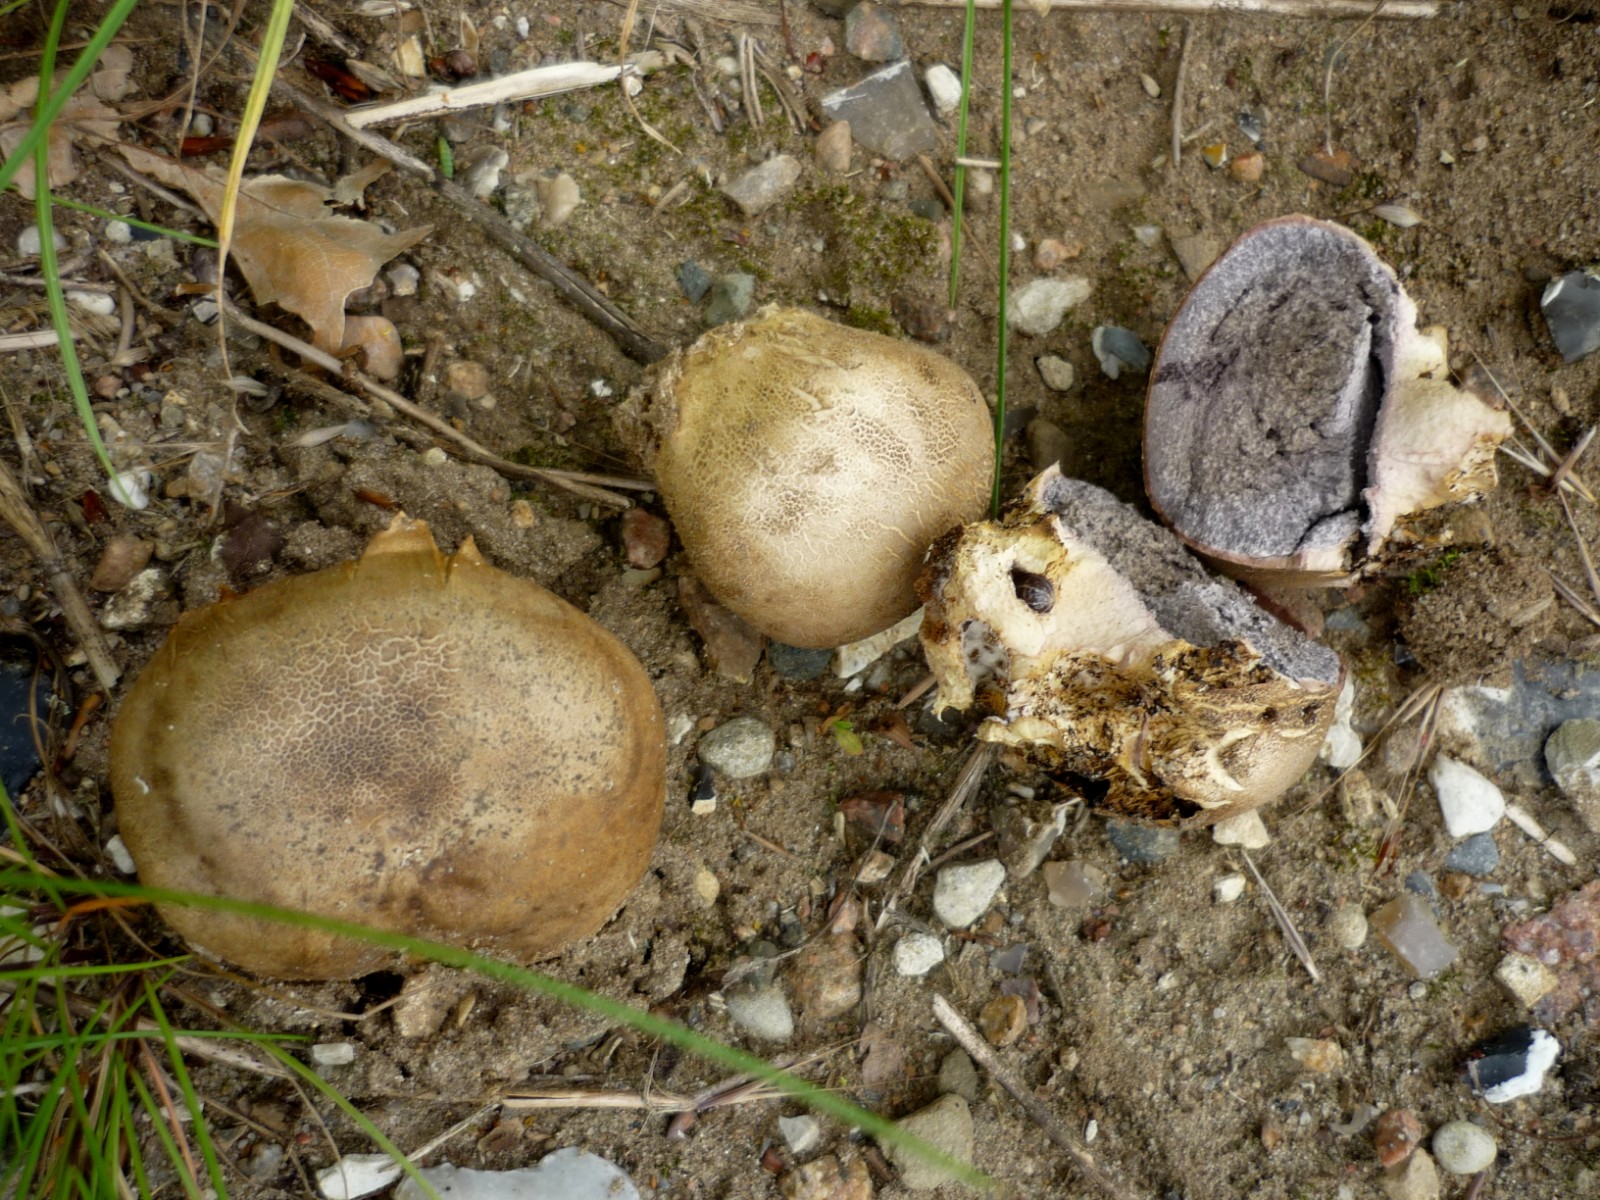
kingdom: Fungi
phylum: Basidiomycota
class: Agaricomycetes
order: Boletales
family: Sclerodermataceae
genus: Scleroderma
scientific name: Scleroderma bovista
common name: bovist-bruskbold
